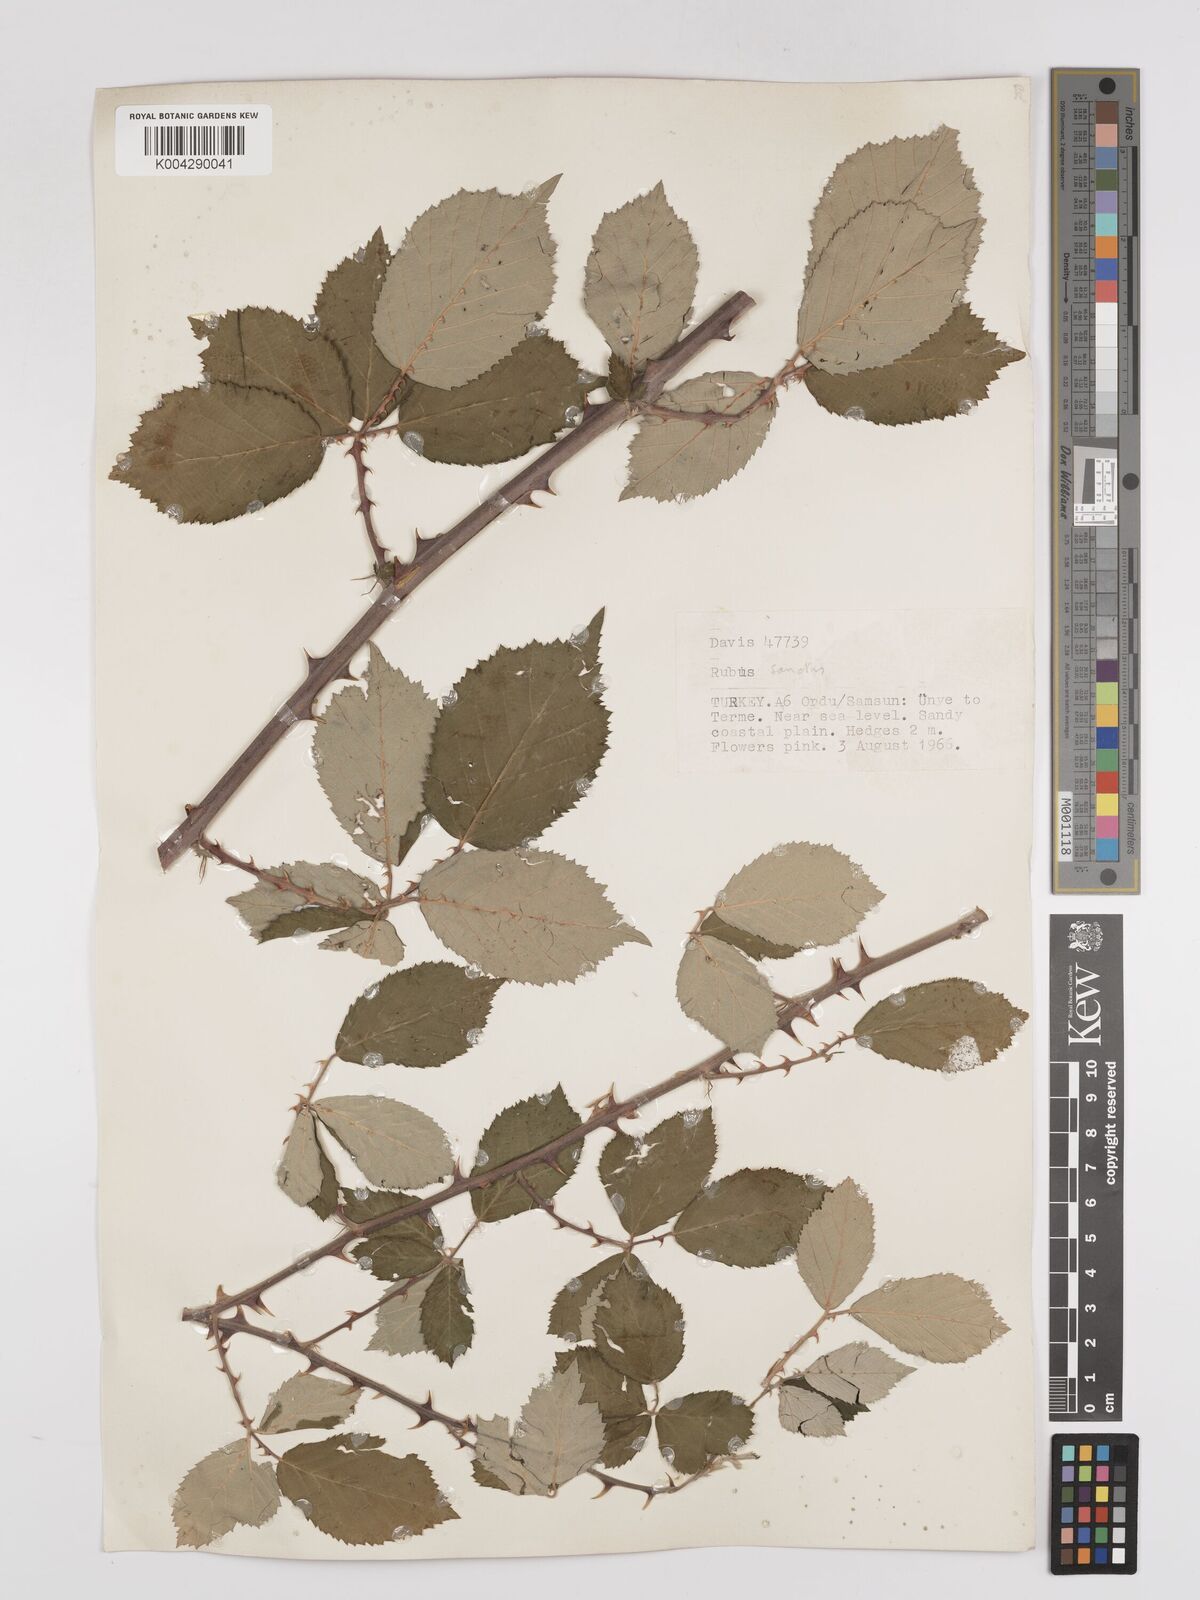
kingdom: Plantae
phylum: Tracheophyta
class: Magnoliopsida
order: Rosales
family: Rosaceae
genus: Rubus
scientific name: Rubus sanctus
